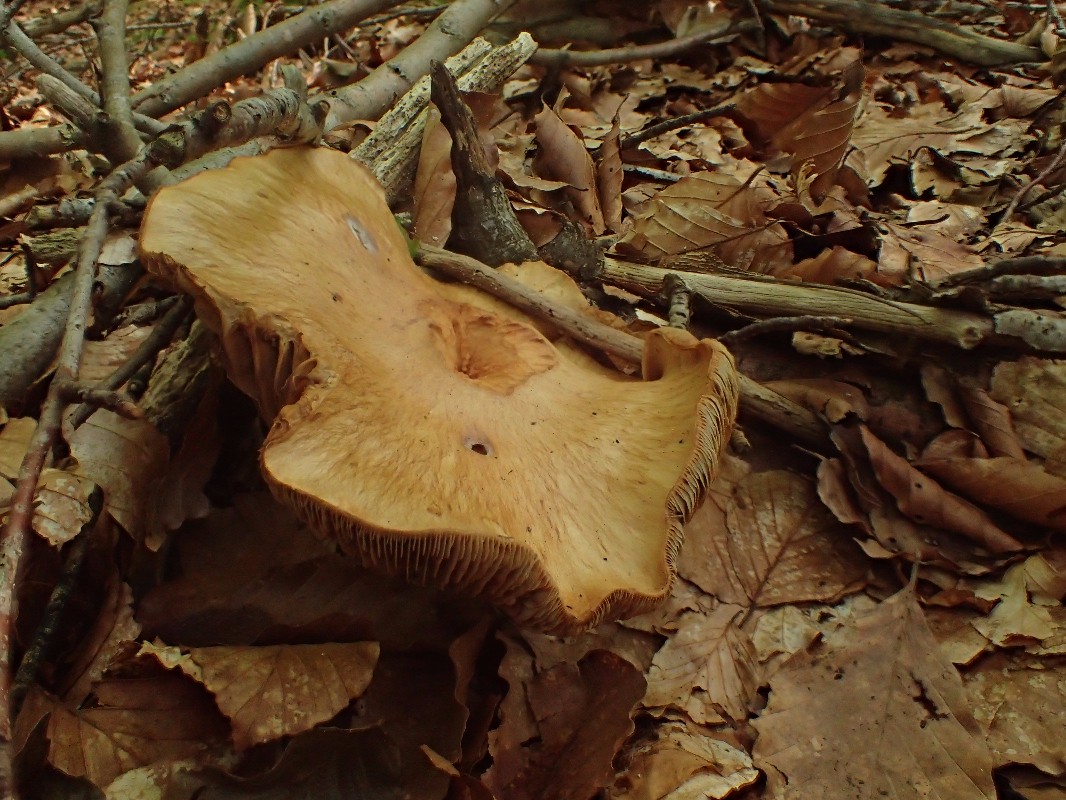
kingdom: Fungi
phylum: Basidiomycota
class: Agaricomycetes
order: Agaricales
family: Cortinariaceae
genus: Cortinarius
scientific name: Cortinarius subtortus
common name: olivengul slørhat
